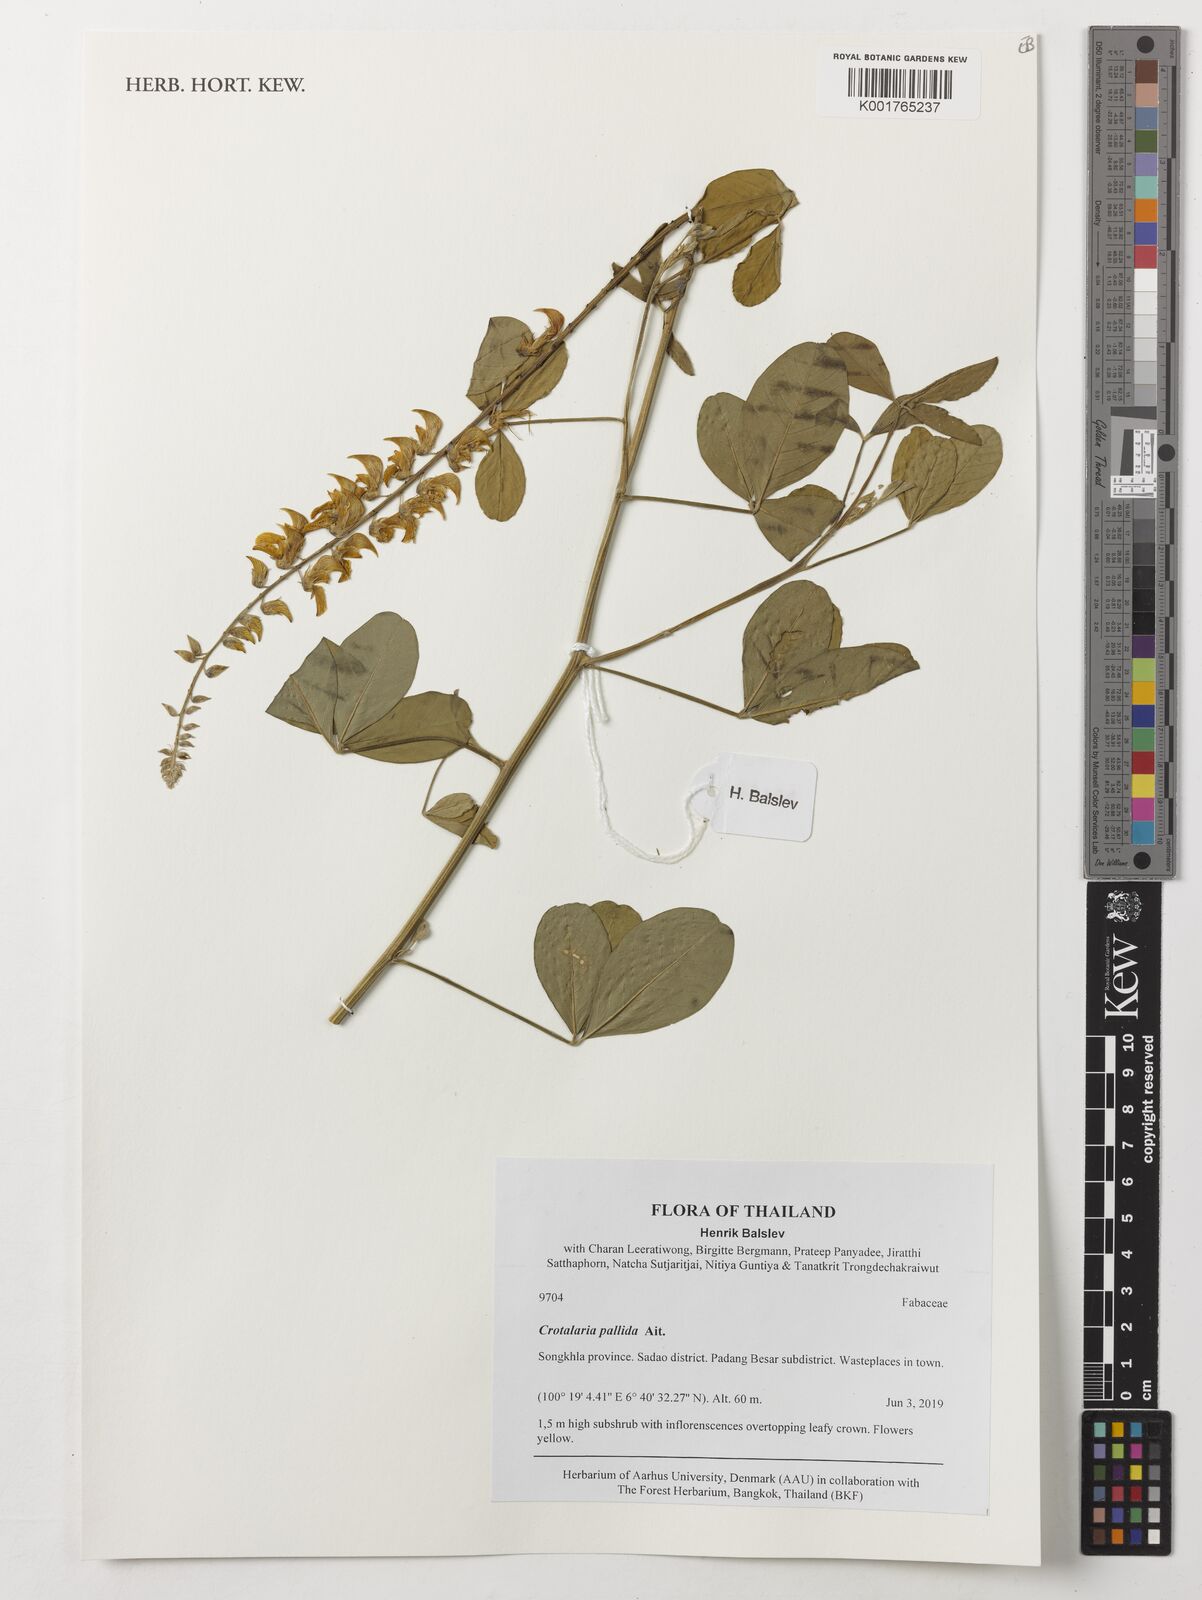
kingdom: Plantae
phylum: Tracheophyta
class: Magnoliopsida
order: Fabales
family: Fabaceae
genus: Crotalaria
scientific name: Crotalaria pallida
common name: Smooth rattlebox
